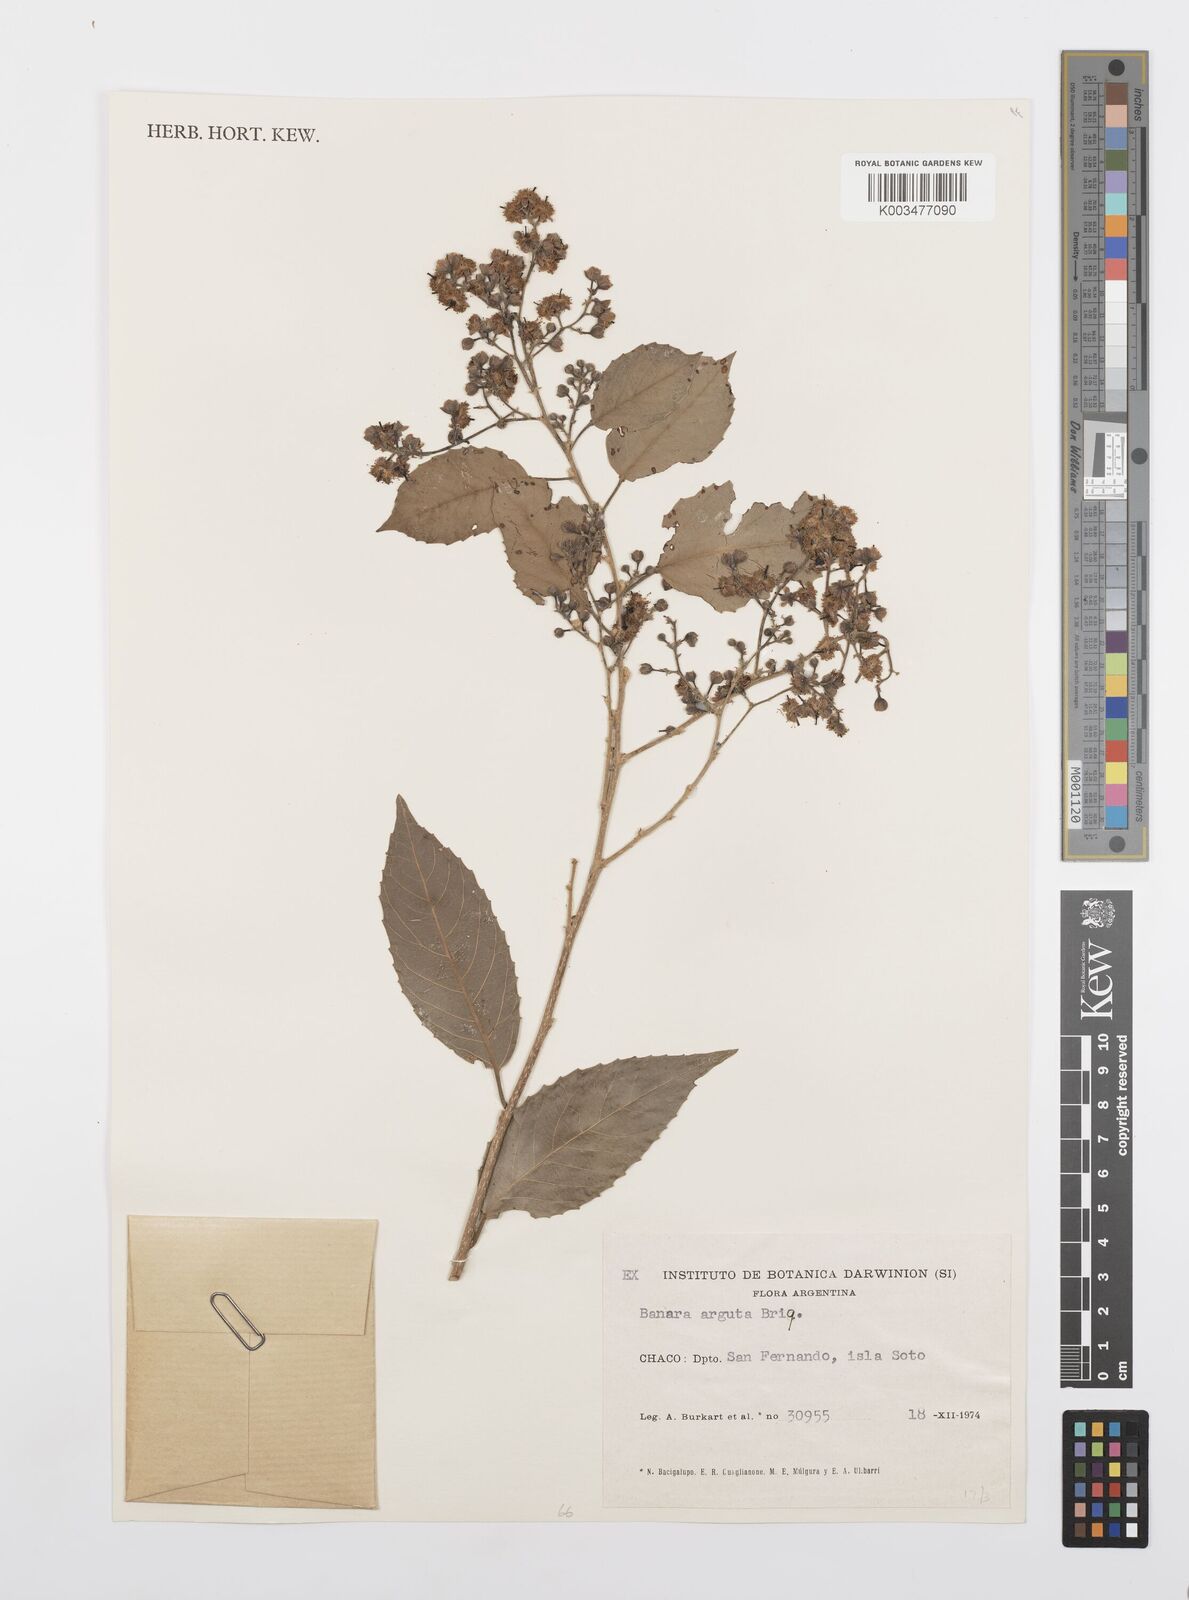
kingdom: Plantae
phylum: Tracheophyta
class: Magnoliopsida
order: Malpighiales
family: Salicaceae
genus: Banara
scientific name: Banara arguta
